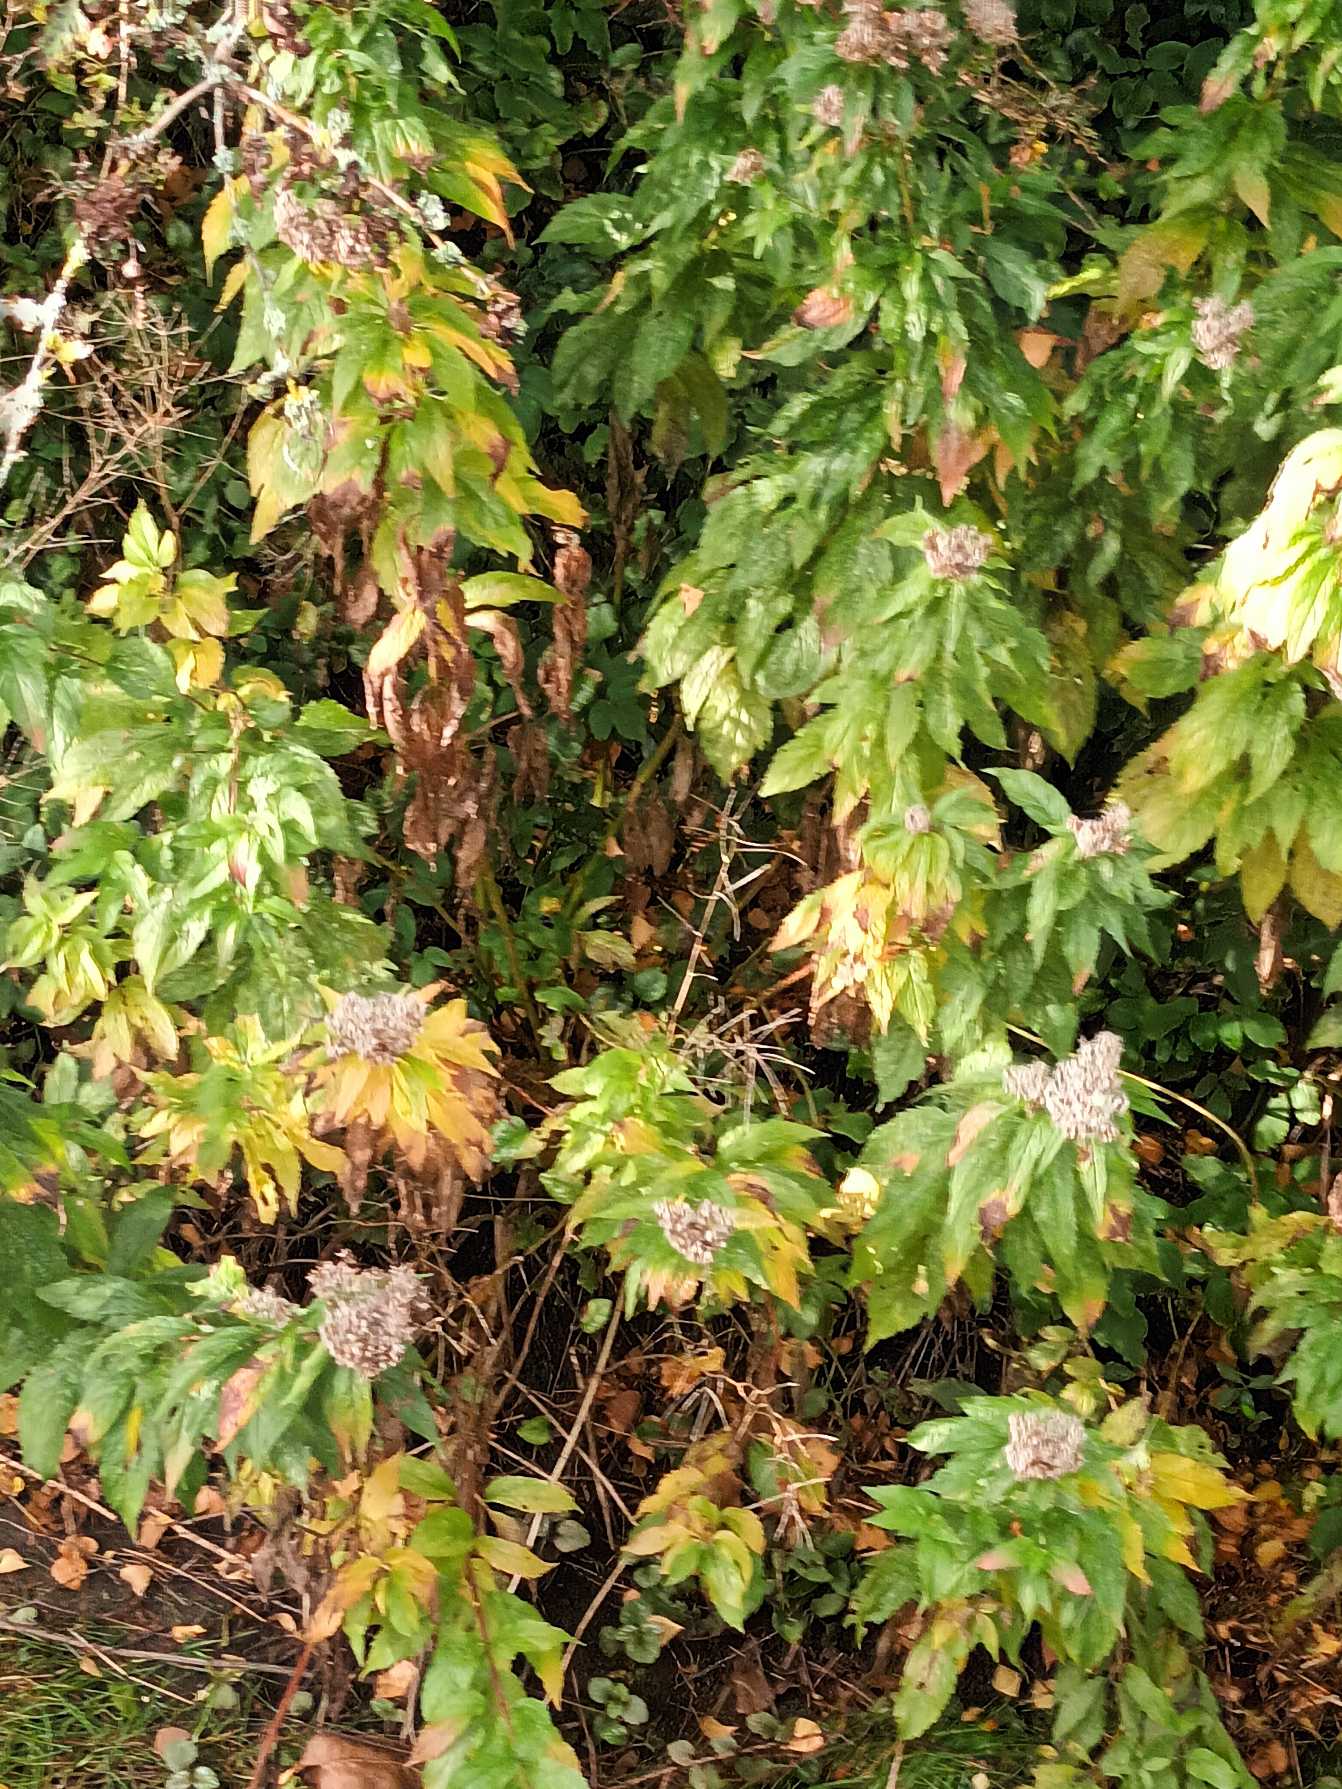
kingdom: Plantae
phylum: Tracheophyta
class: Magnoliopsida
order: Asterales
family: Asteraceae
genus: Eupatorium
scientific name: Eupatorium cannabinum
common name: Hjortetrøst
